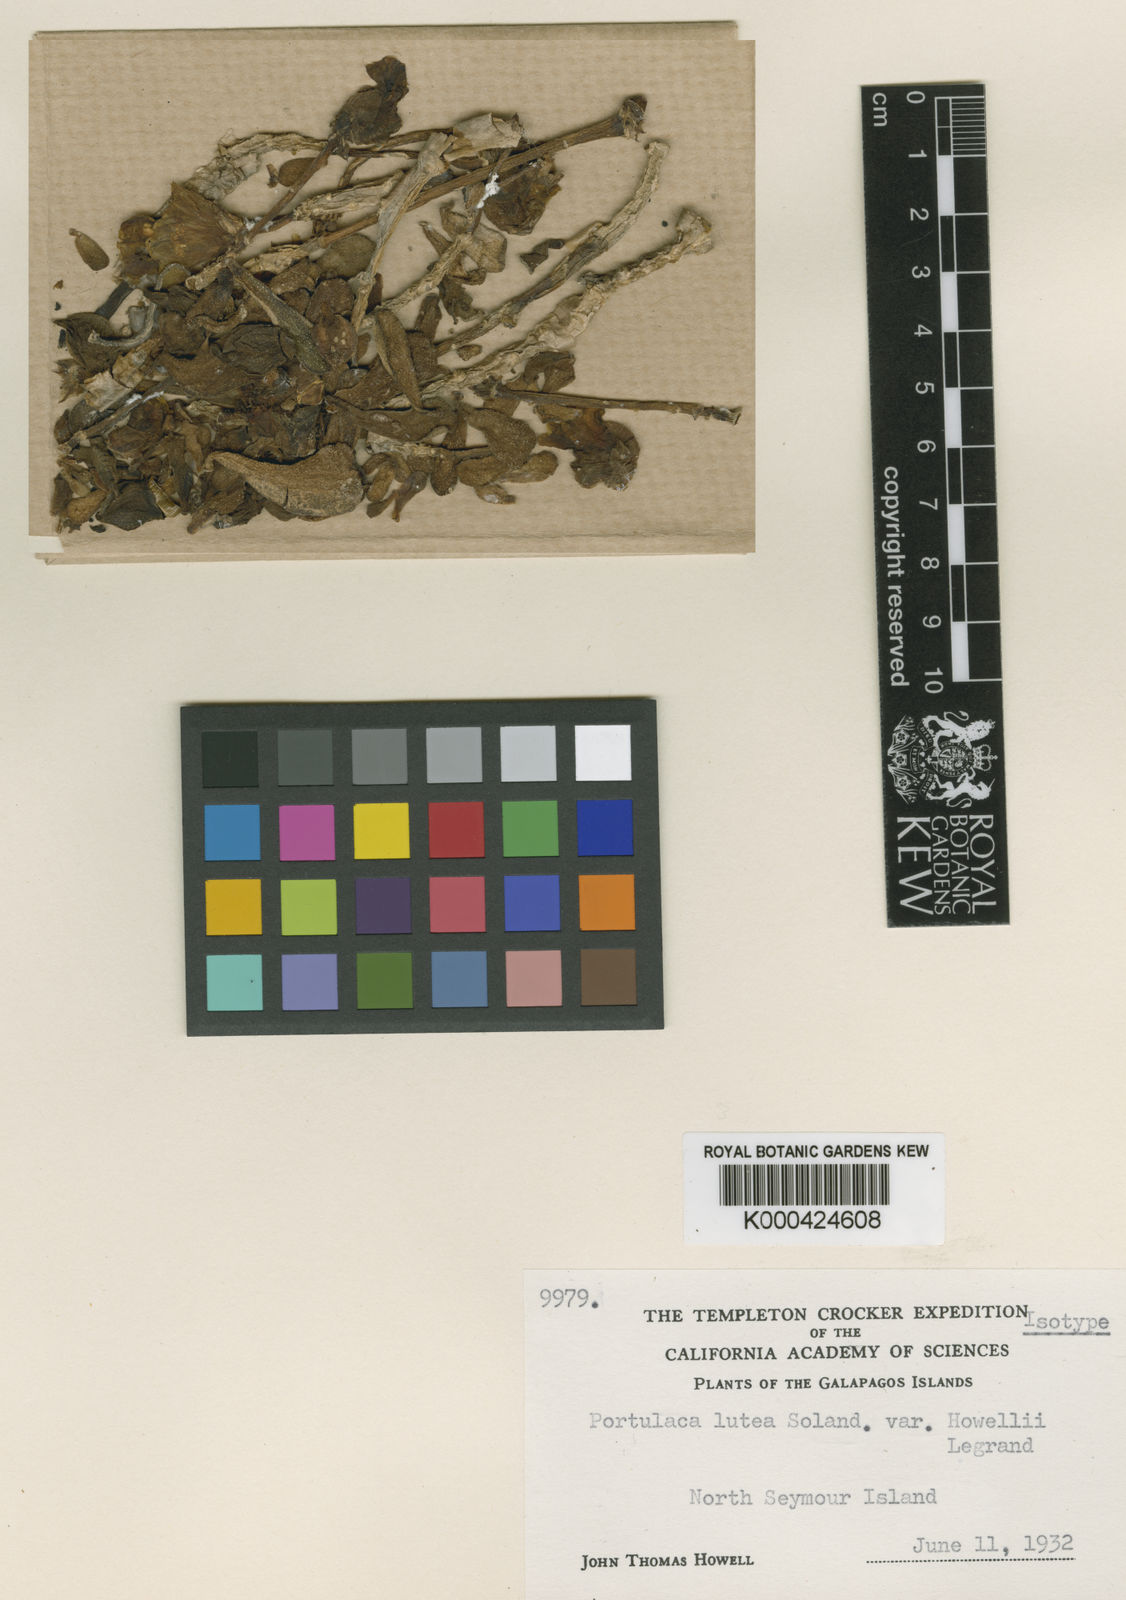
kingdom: Plantae
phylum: Tracheophyta
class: Magnoliopsida
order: Caryophyllales
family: Portulacaceae
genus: Portulaca
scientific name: Portulaca howellii
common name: Galapagos purslane
